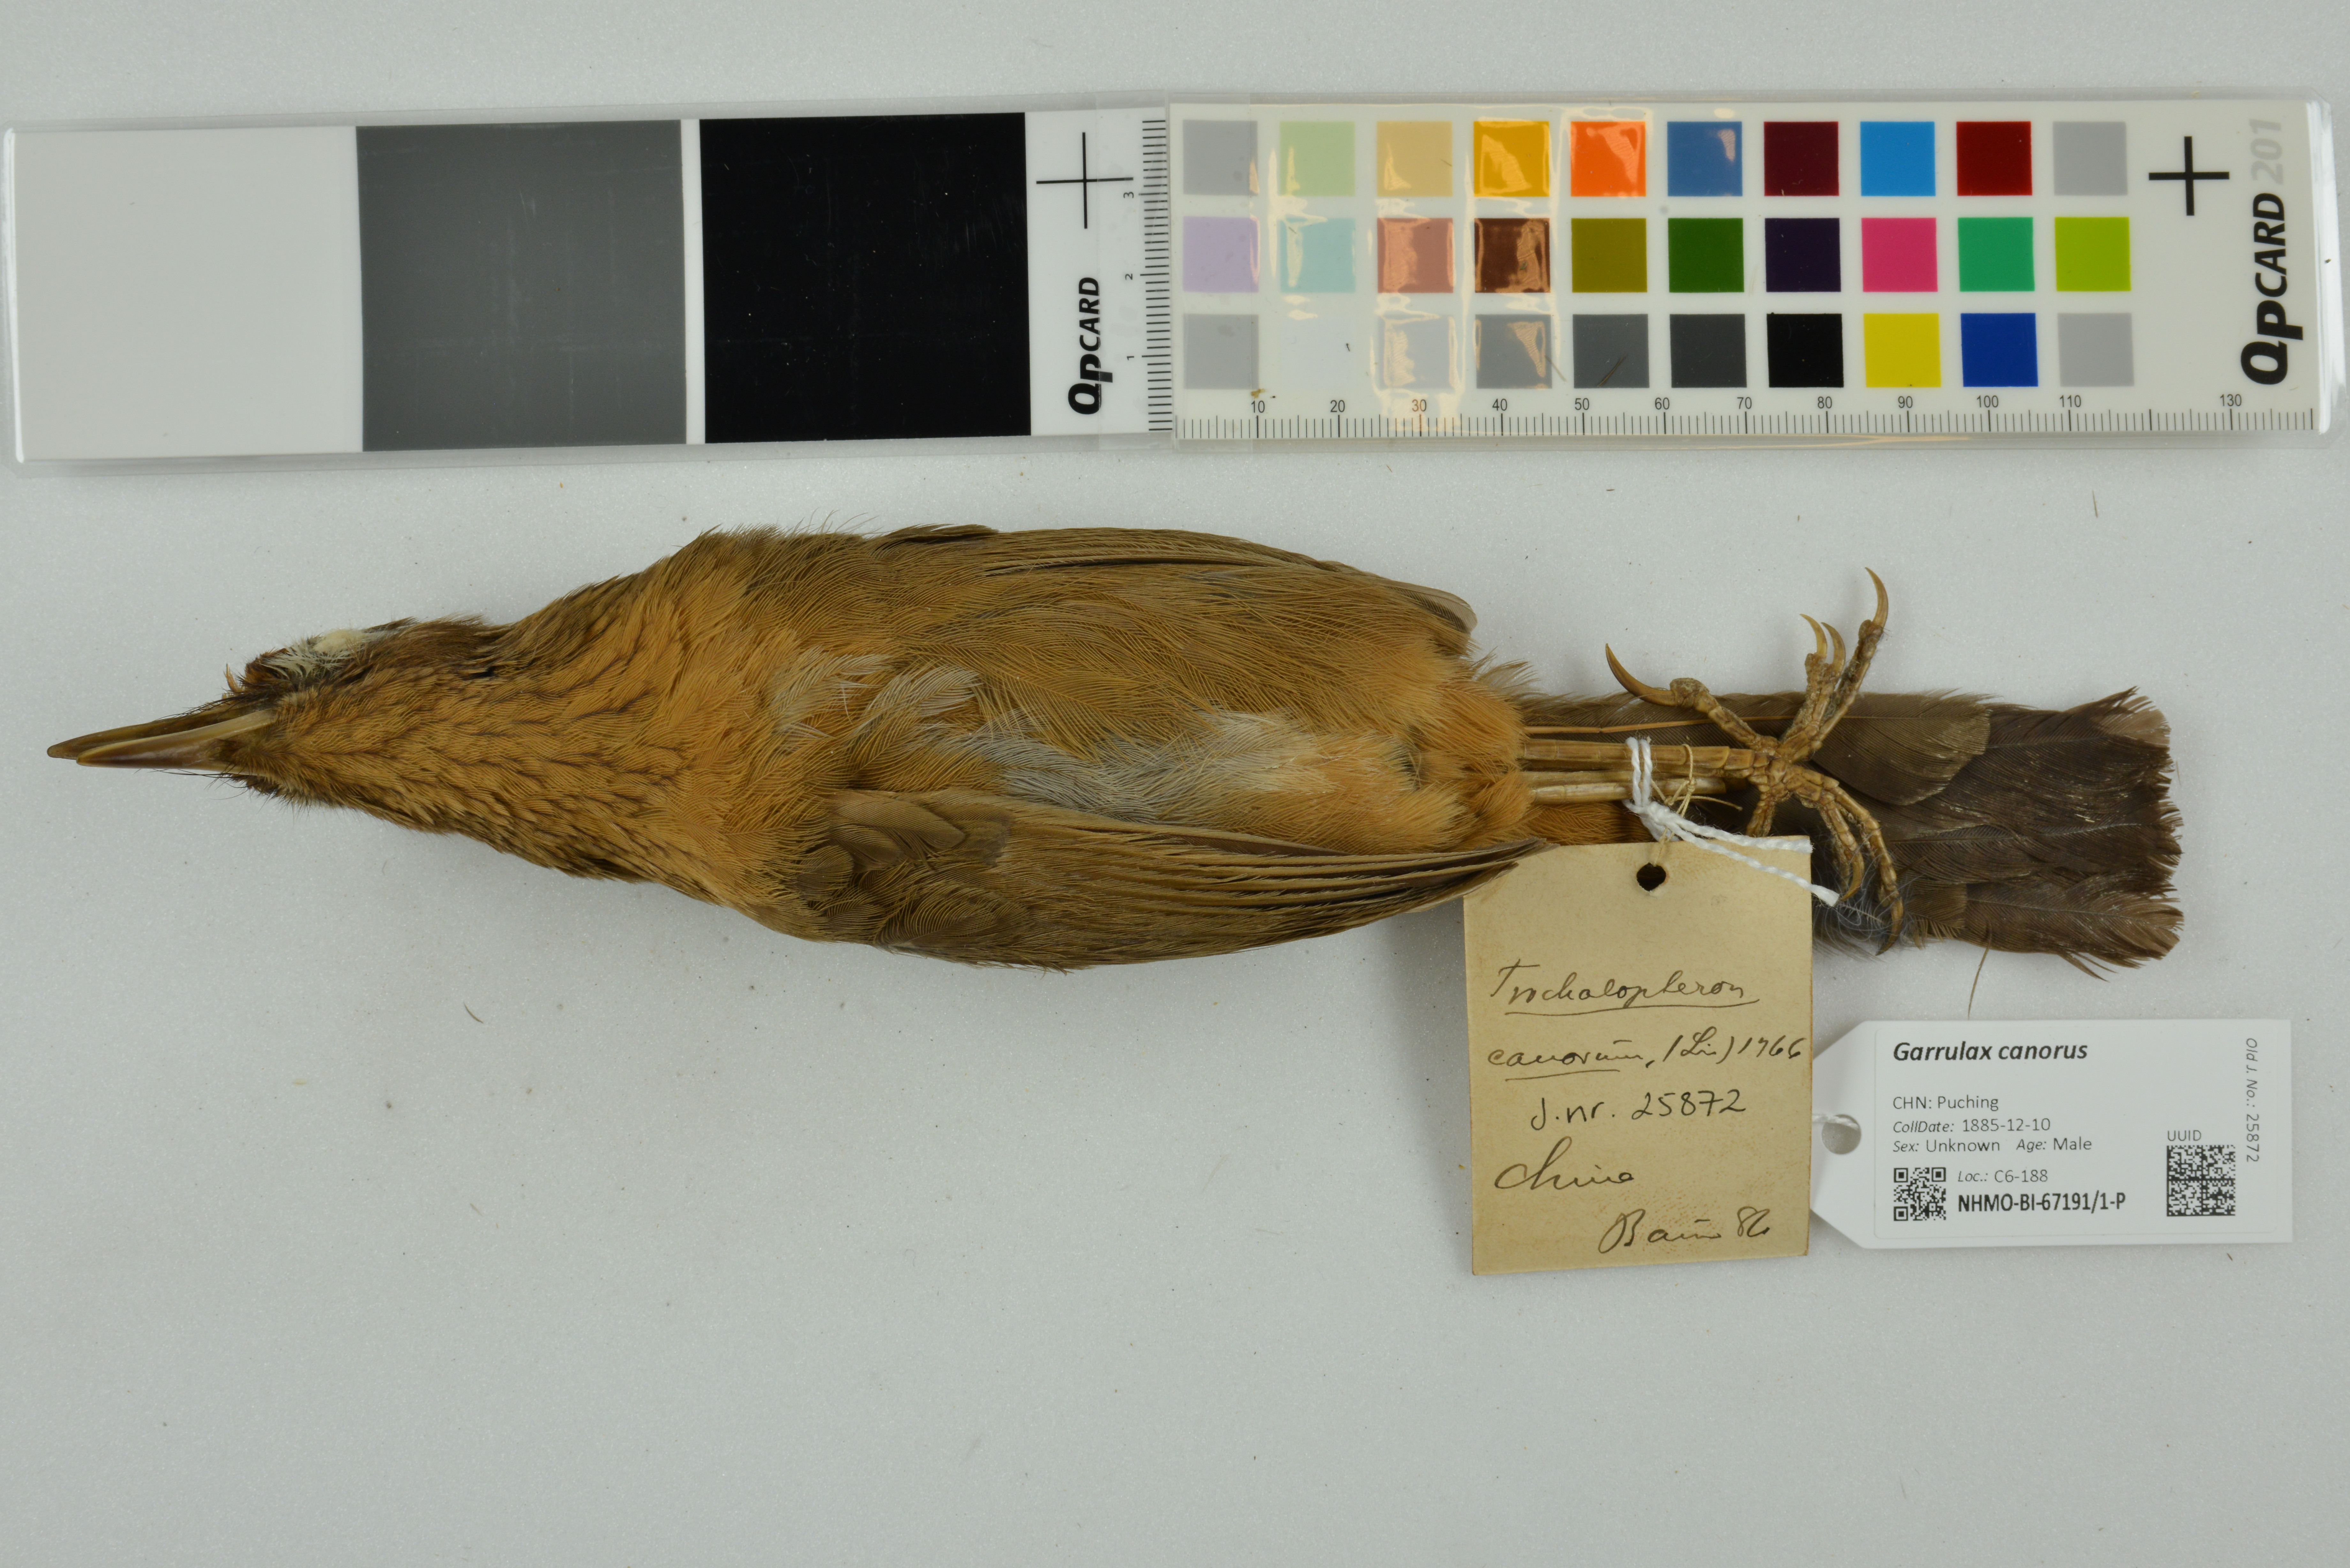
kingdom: Animalia
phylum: Chordata
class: Aves
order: Passeriformes
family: Leiothrichidae
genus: Garrulax
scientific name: Garrulax canorus
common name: Chinese hwamei
